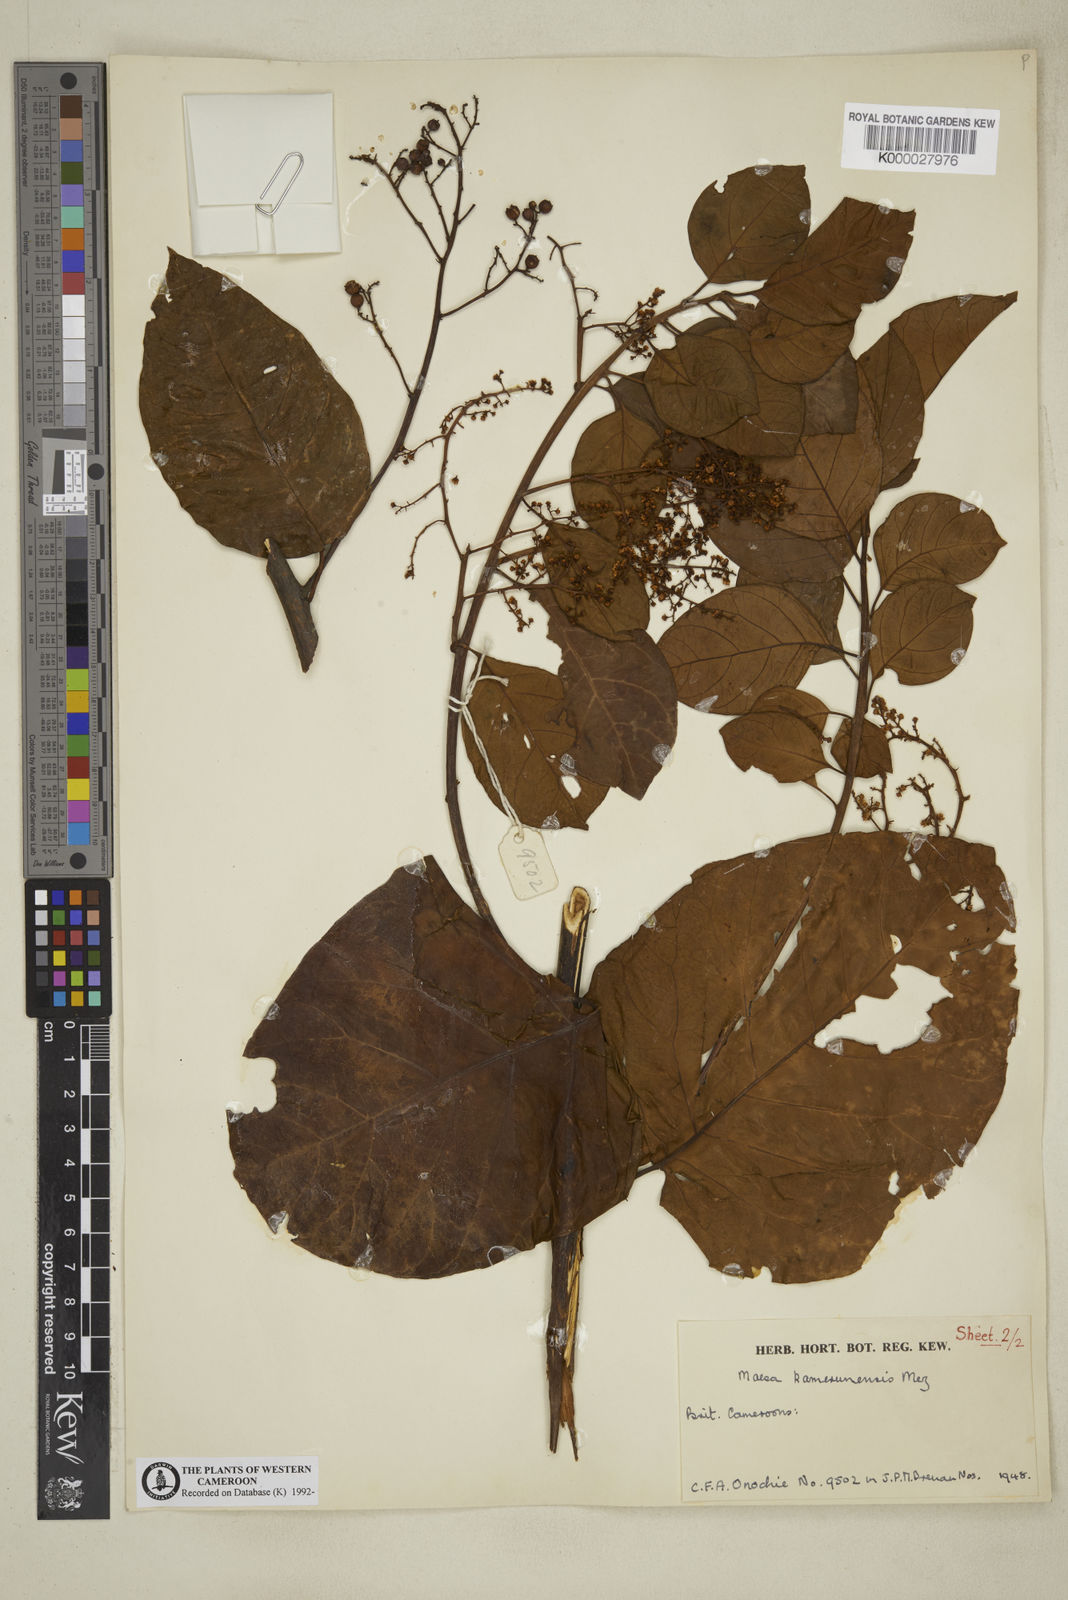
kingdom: Plantae
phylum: Tracheophyta
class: Magnoliopsida
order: Ericales
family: Primulaceae
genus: Maesa
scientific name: Maesa kamerunensis
